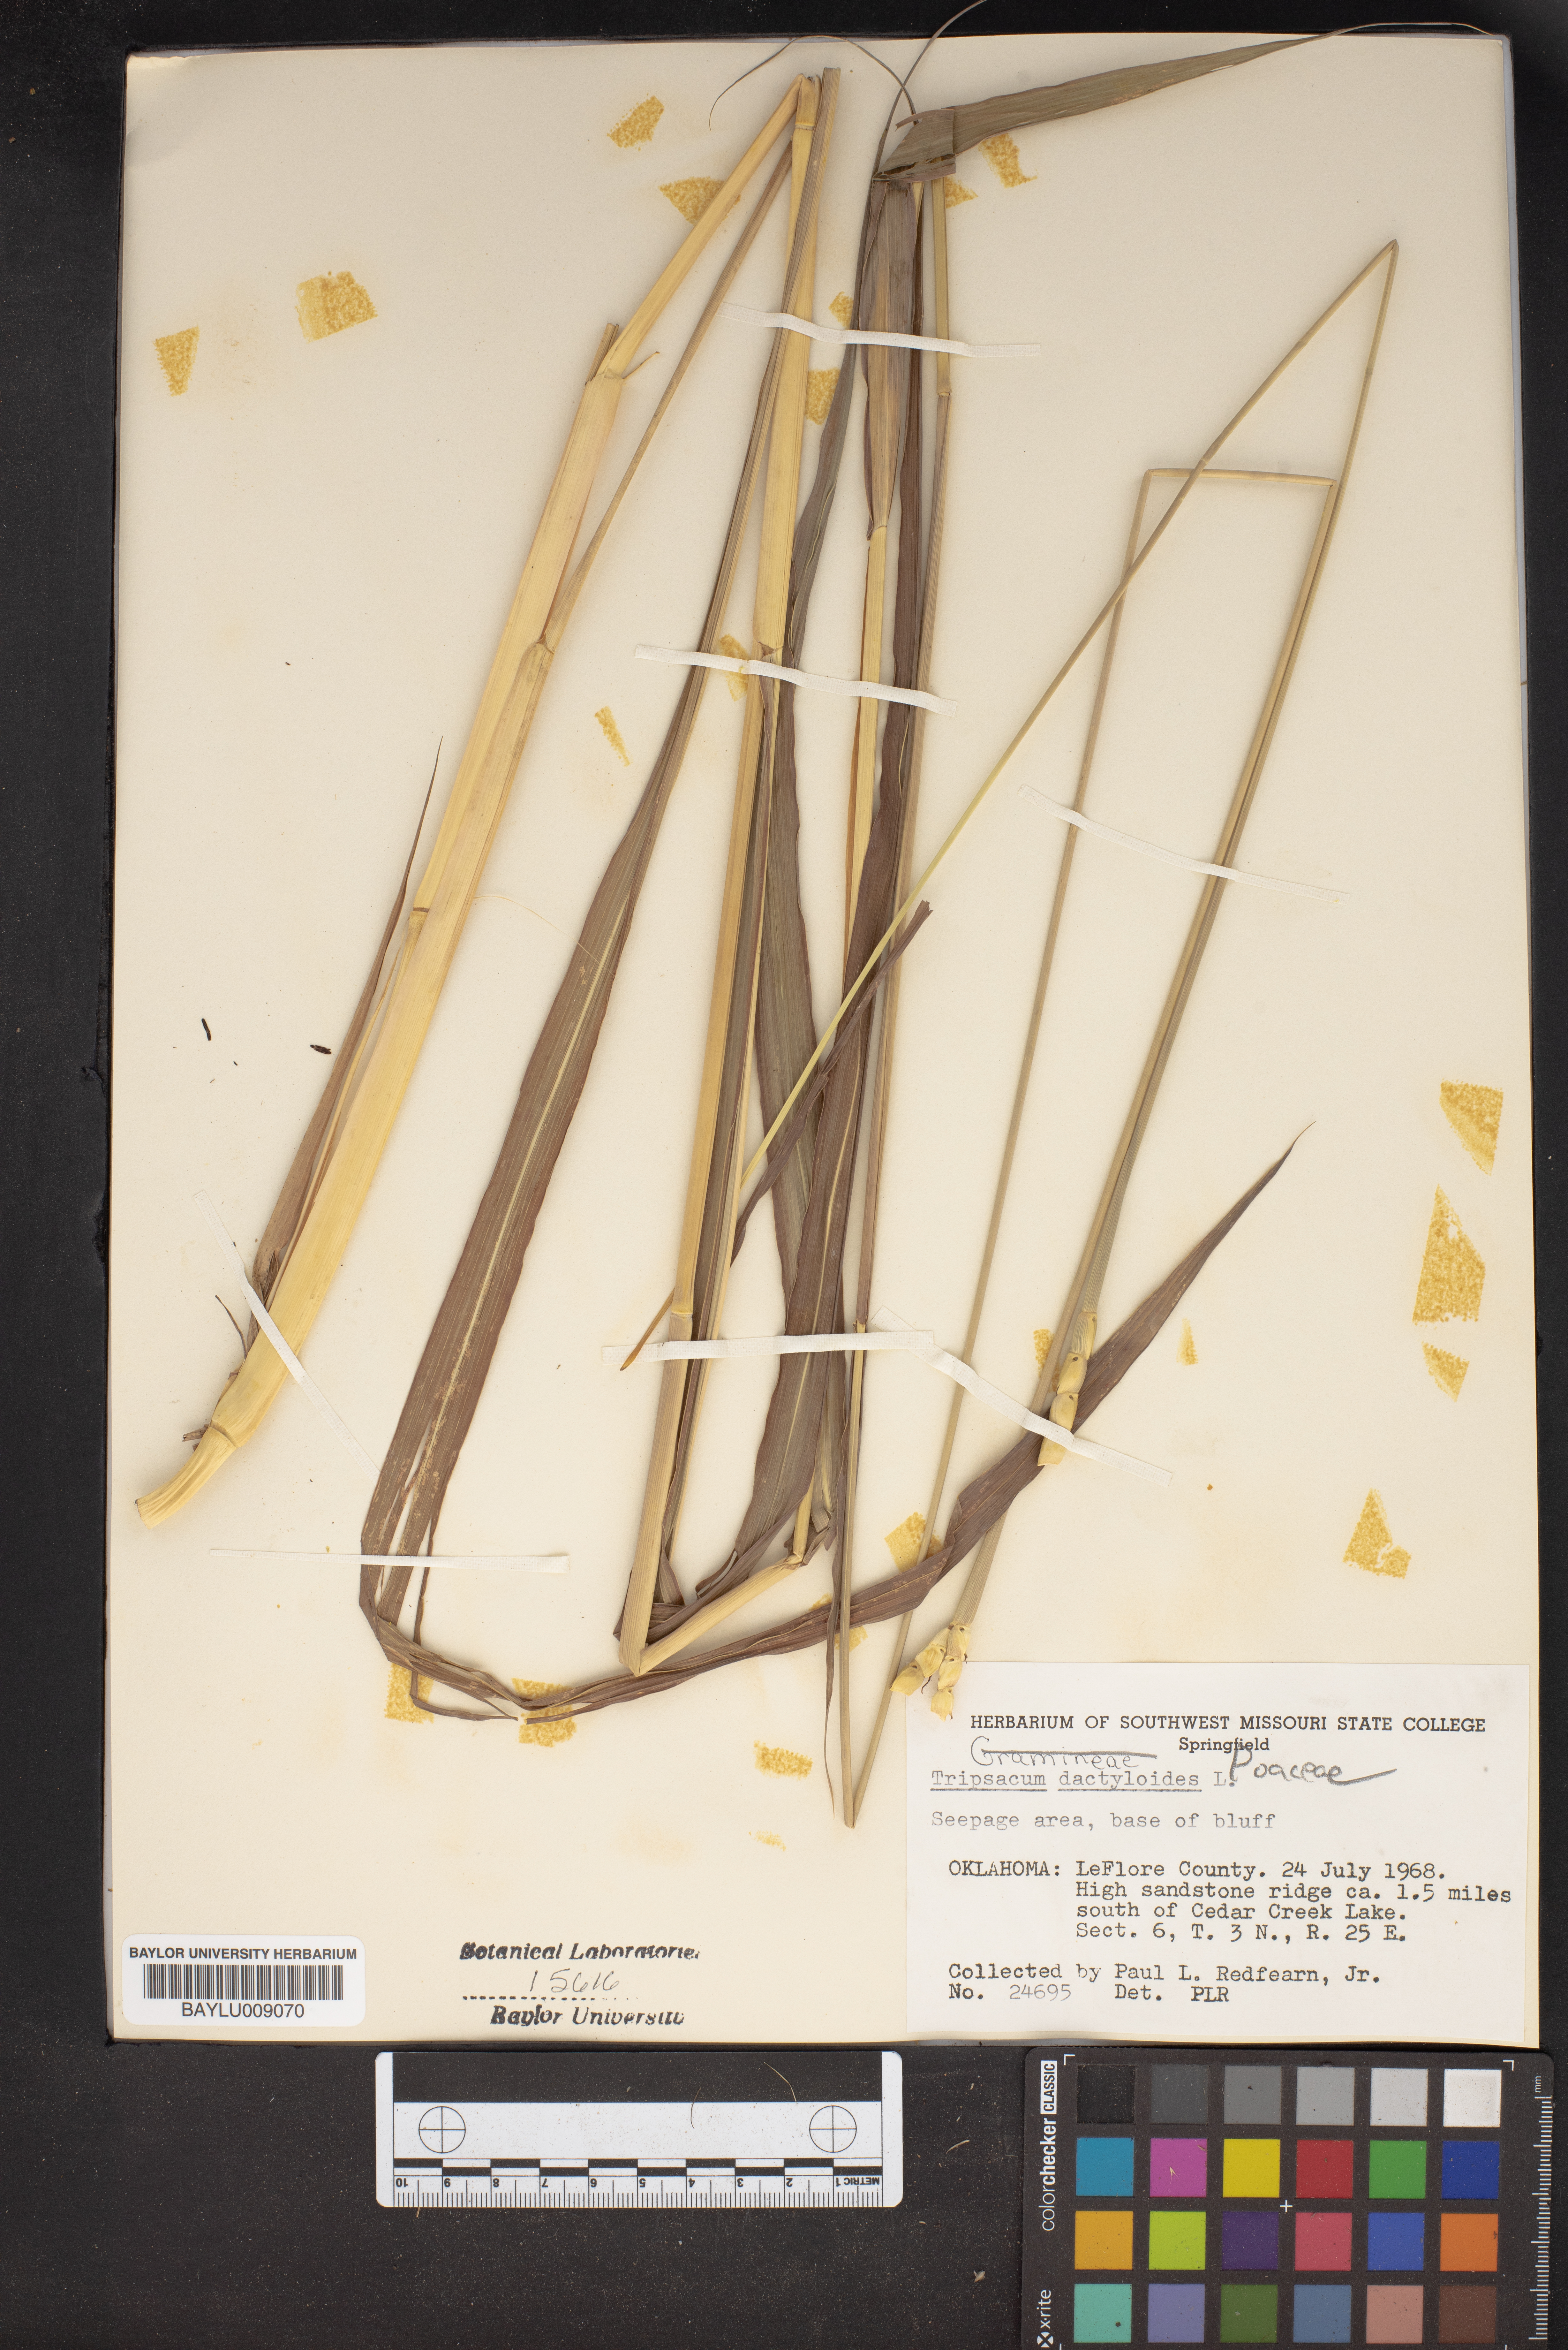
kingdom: Plantae
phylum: Tracheophyta
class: Liliopsida
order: Poales
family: Poaceae
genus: Tripsacum
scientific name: Tripsacum dactyloides
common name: Buffalo-grass
